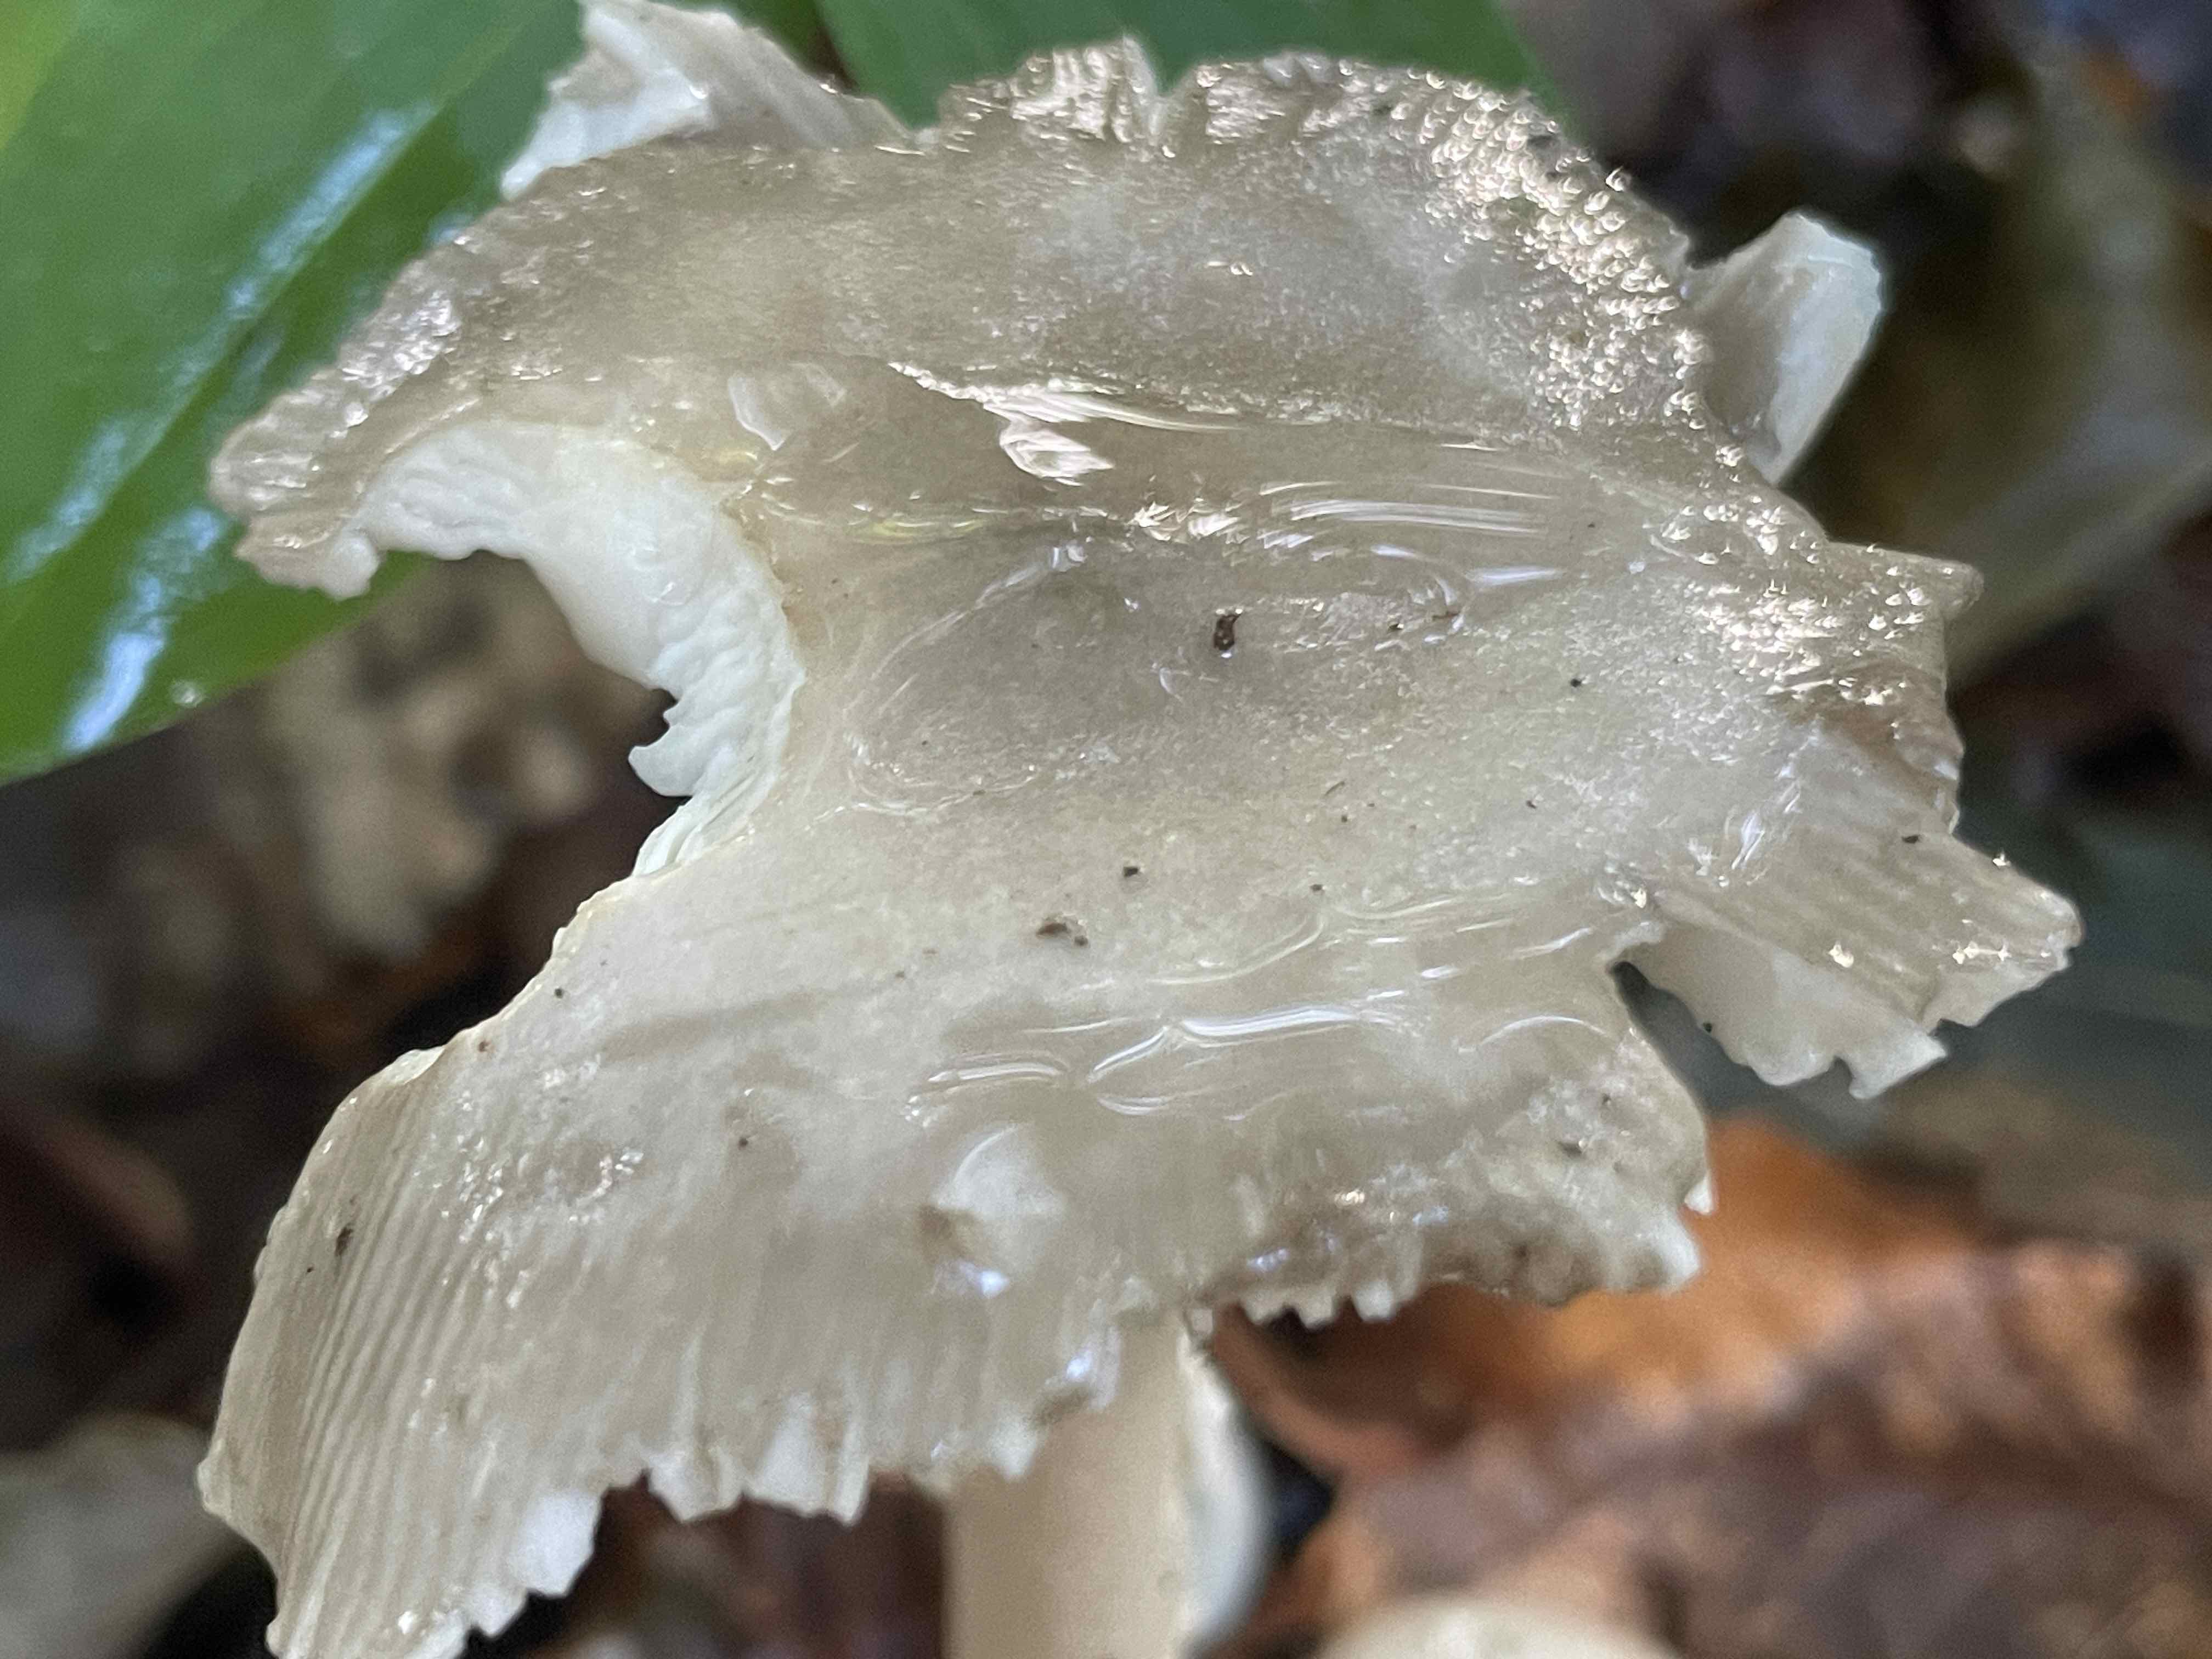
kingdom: Fungi
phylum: Basidiomycota
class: Agaricomycetes
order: Agaricales
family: Amanitaceae
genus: Amanita
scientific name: Amanita
